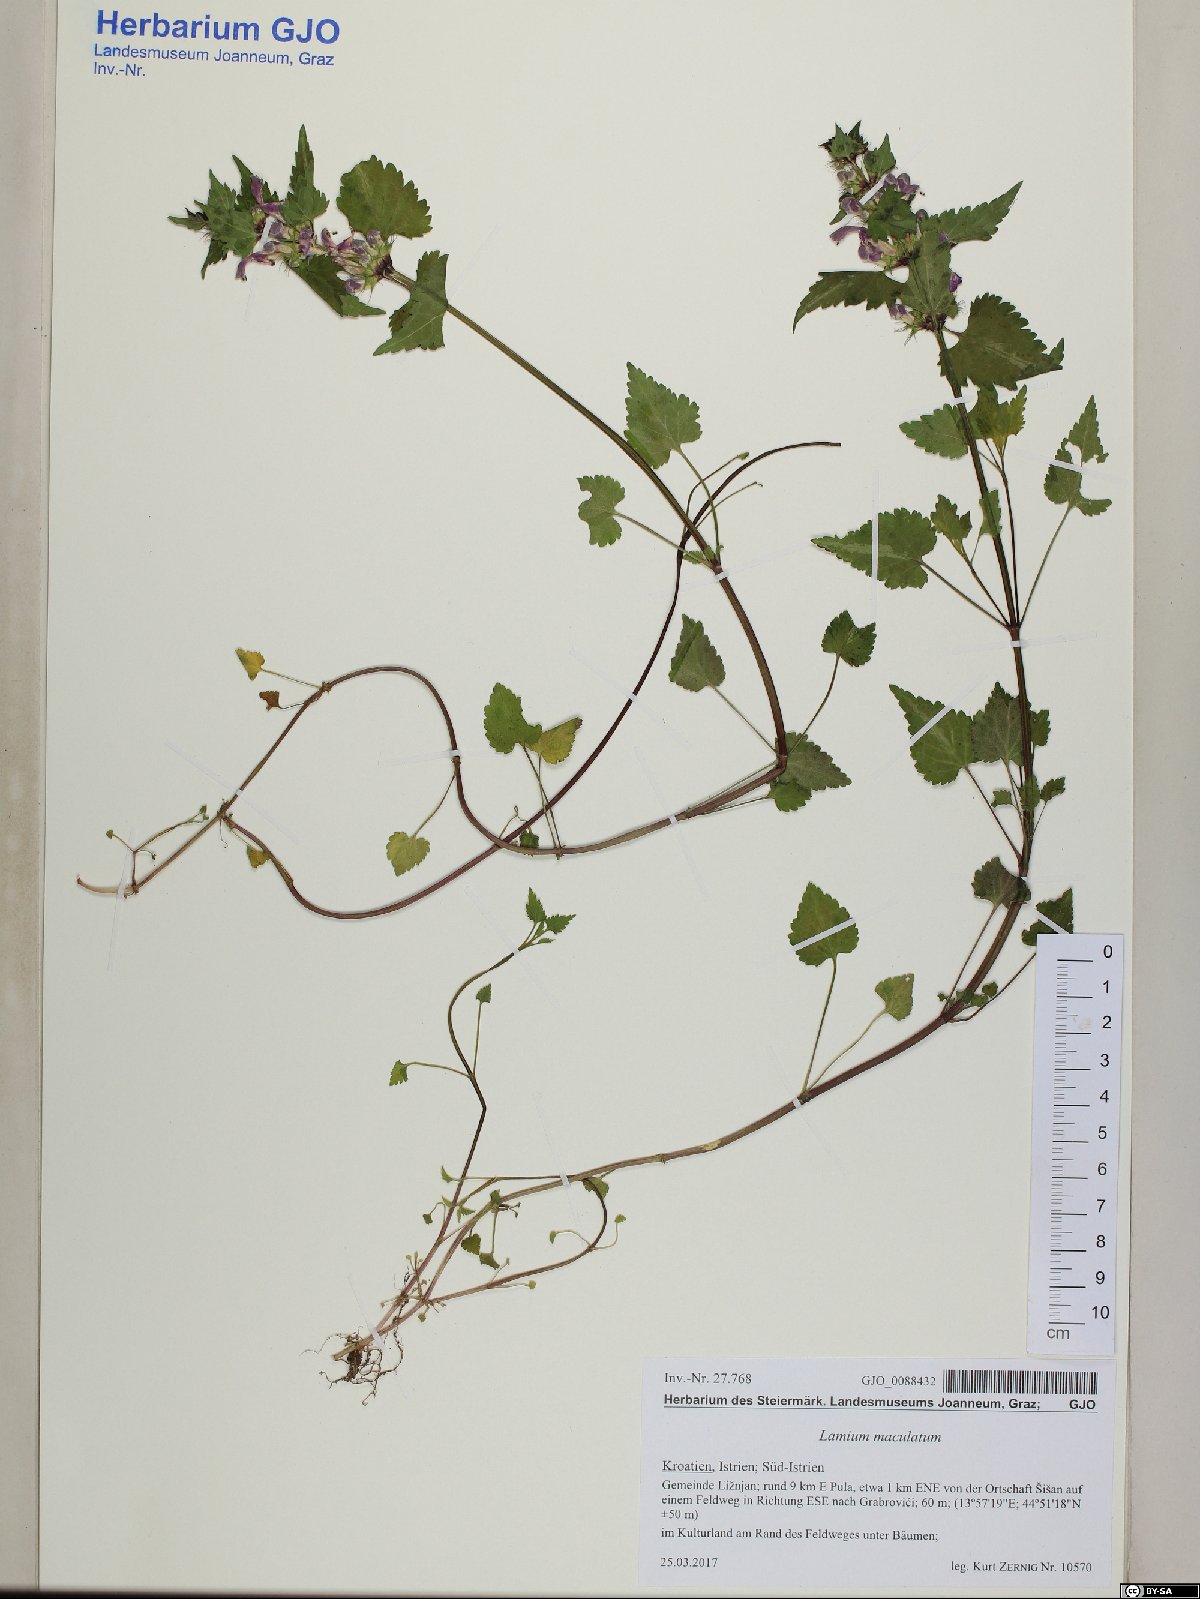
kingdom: Plantae
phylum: Tracheophyta
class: Magnoliopsida
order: Lamiales
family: Lamiaceae
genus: Lamium
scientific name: Lamium maculatum
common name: Spotted dead-nettle
